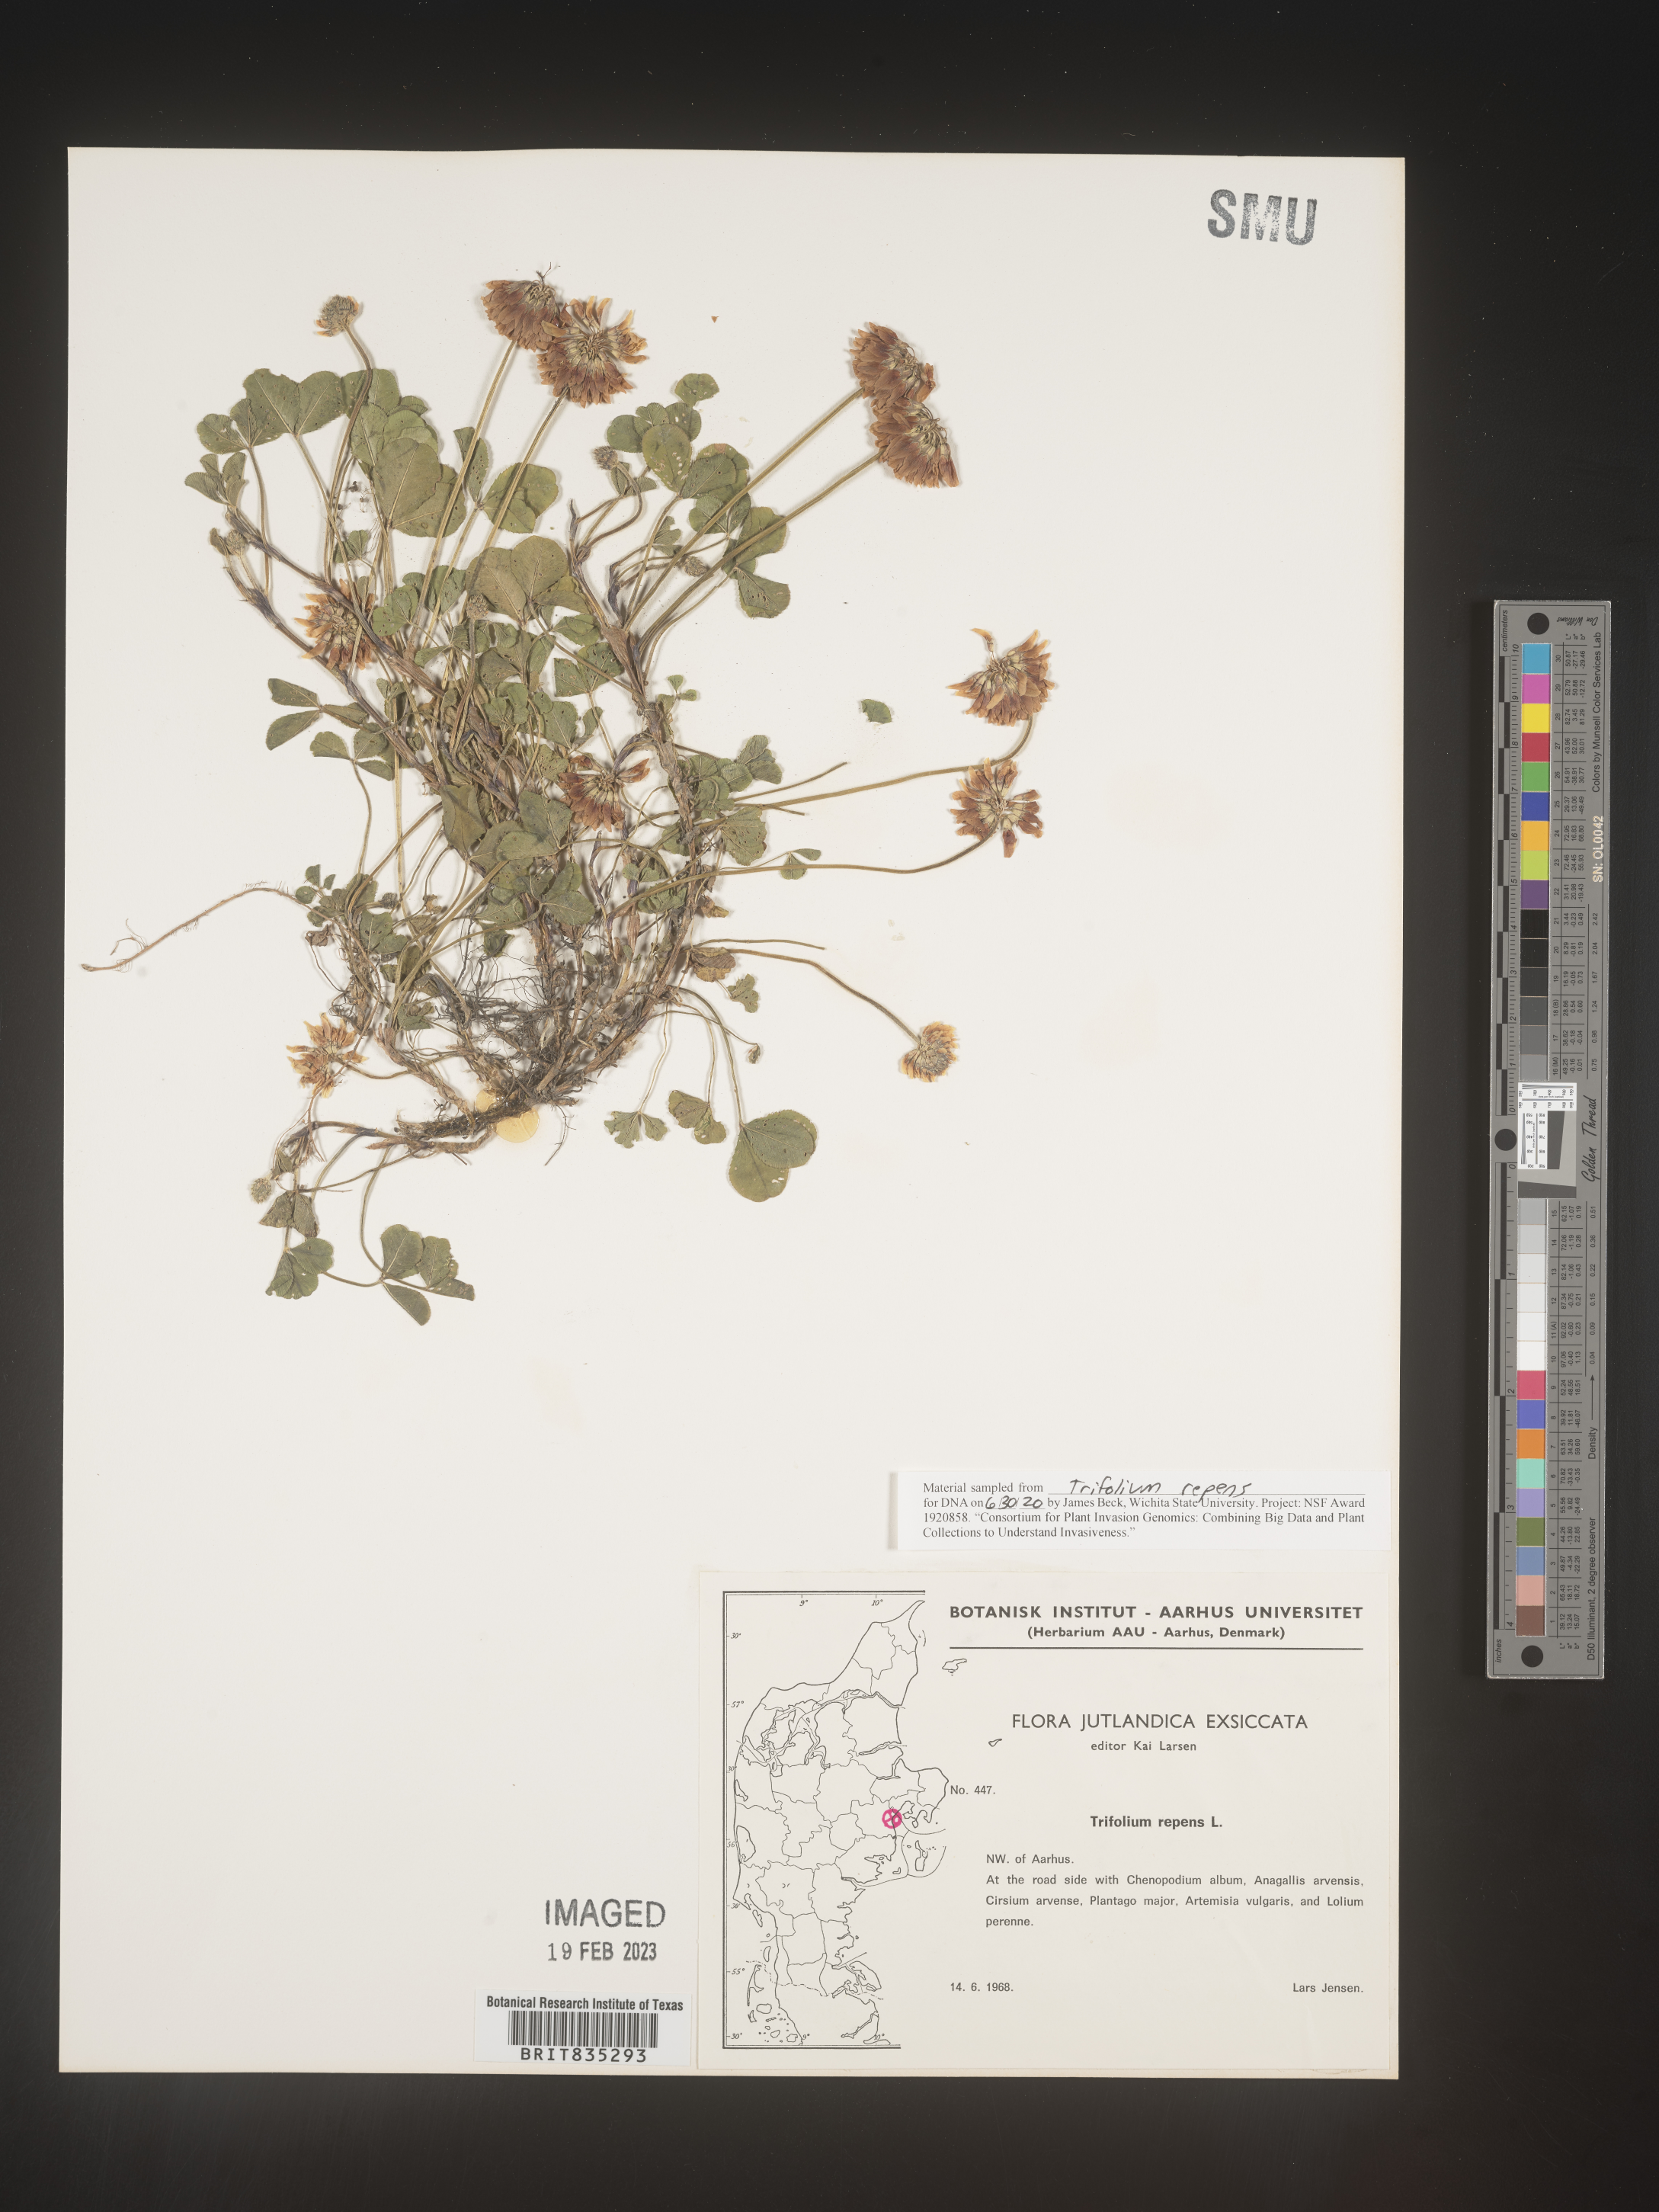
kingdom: Plantae
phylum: Tracheophyta
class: Magnoliopsida
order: Fabales
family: Fabaceae
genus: Trifolium
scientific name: Trifolium
